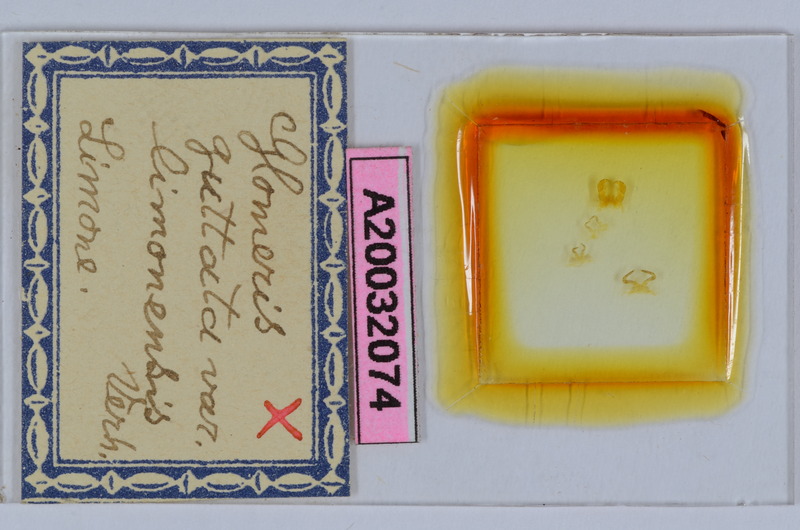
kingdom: Animalia
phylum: Arthropoda
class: Diplopoda
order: Glomerida
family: Glomeridae
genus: Glomeris
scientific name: Glomeris connexa
